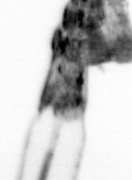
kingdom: Animalia
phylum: Arthropoda
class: Copepoda
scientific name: Copepoda
